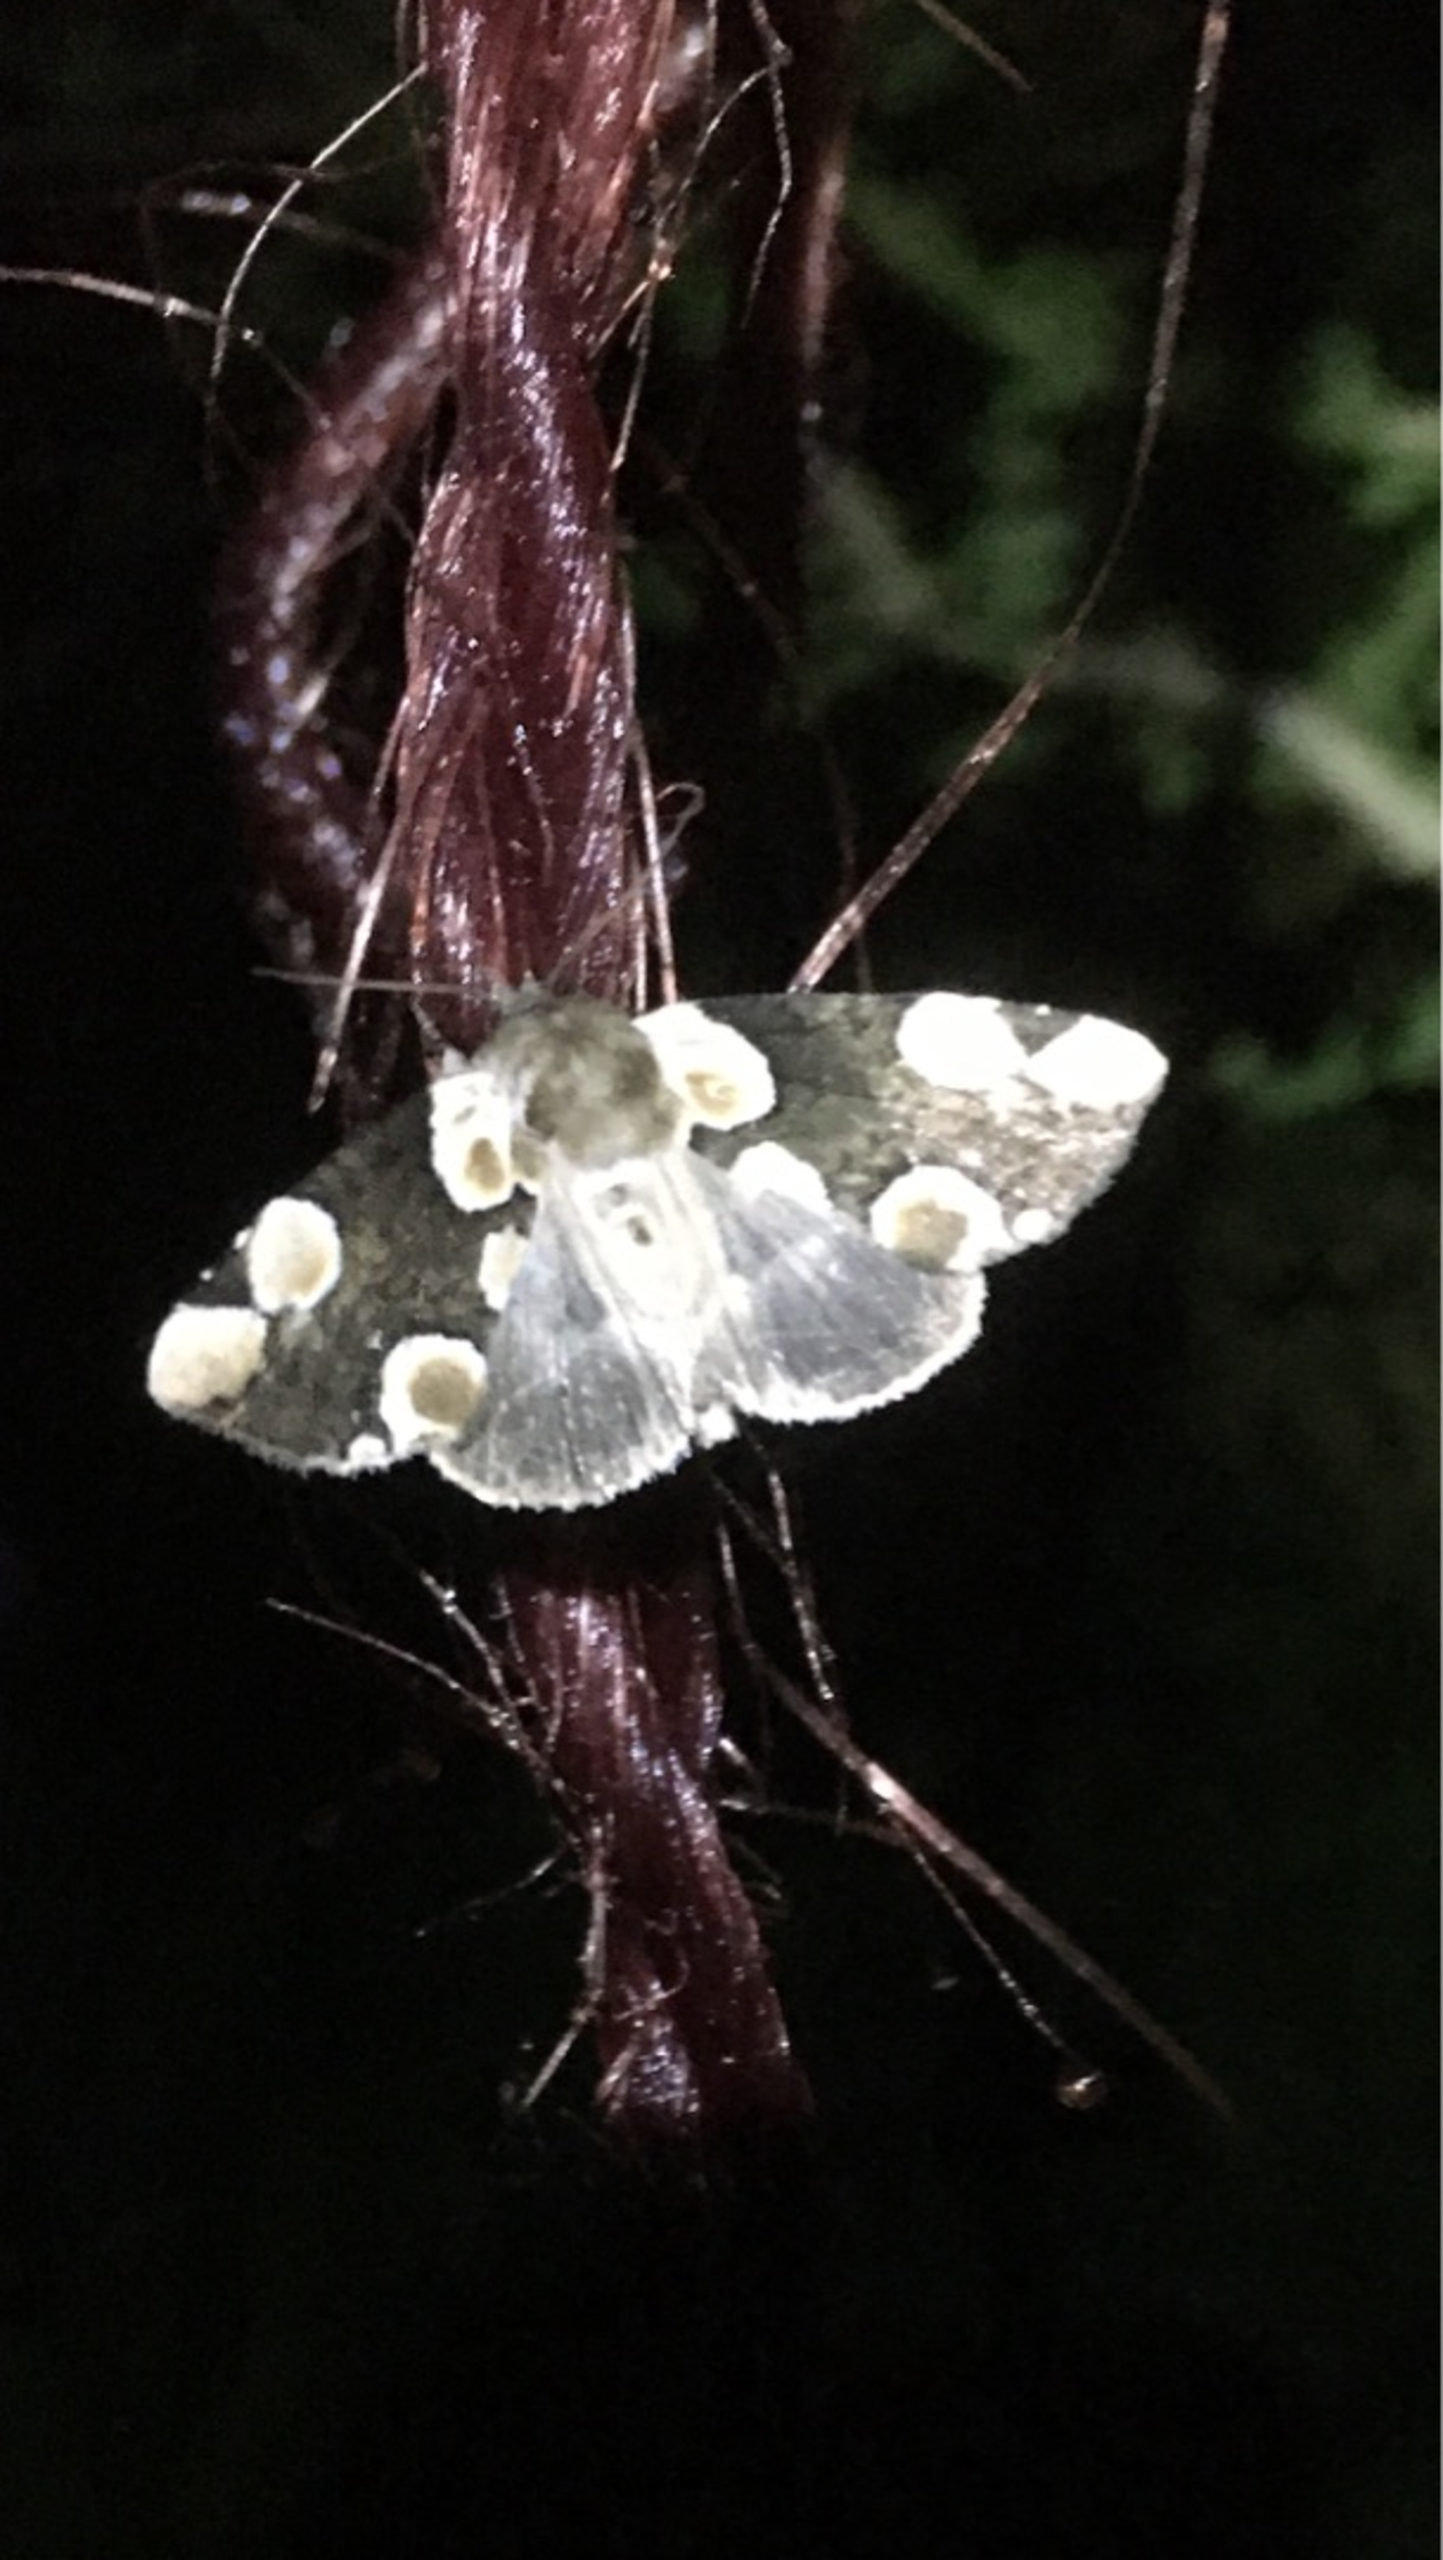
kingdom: Animalia
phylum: Arthropoda
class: Insecta
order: Lepidoptera
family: Drepanidae
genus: Thyatira
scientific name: Thyatira batis
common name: Rosenplet
